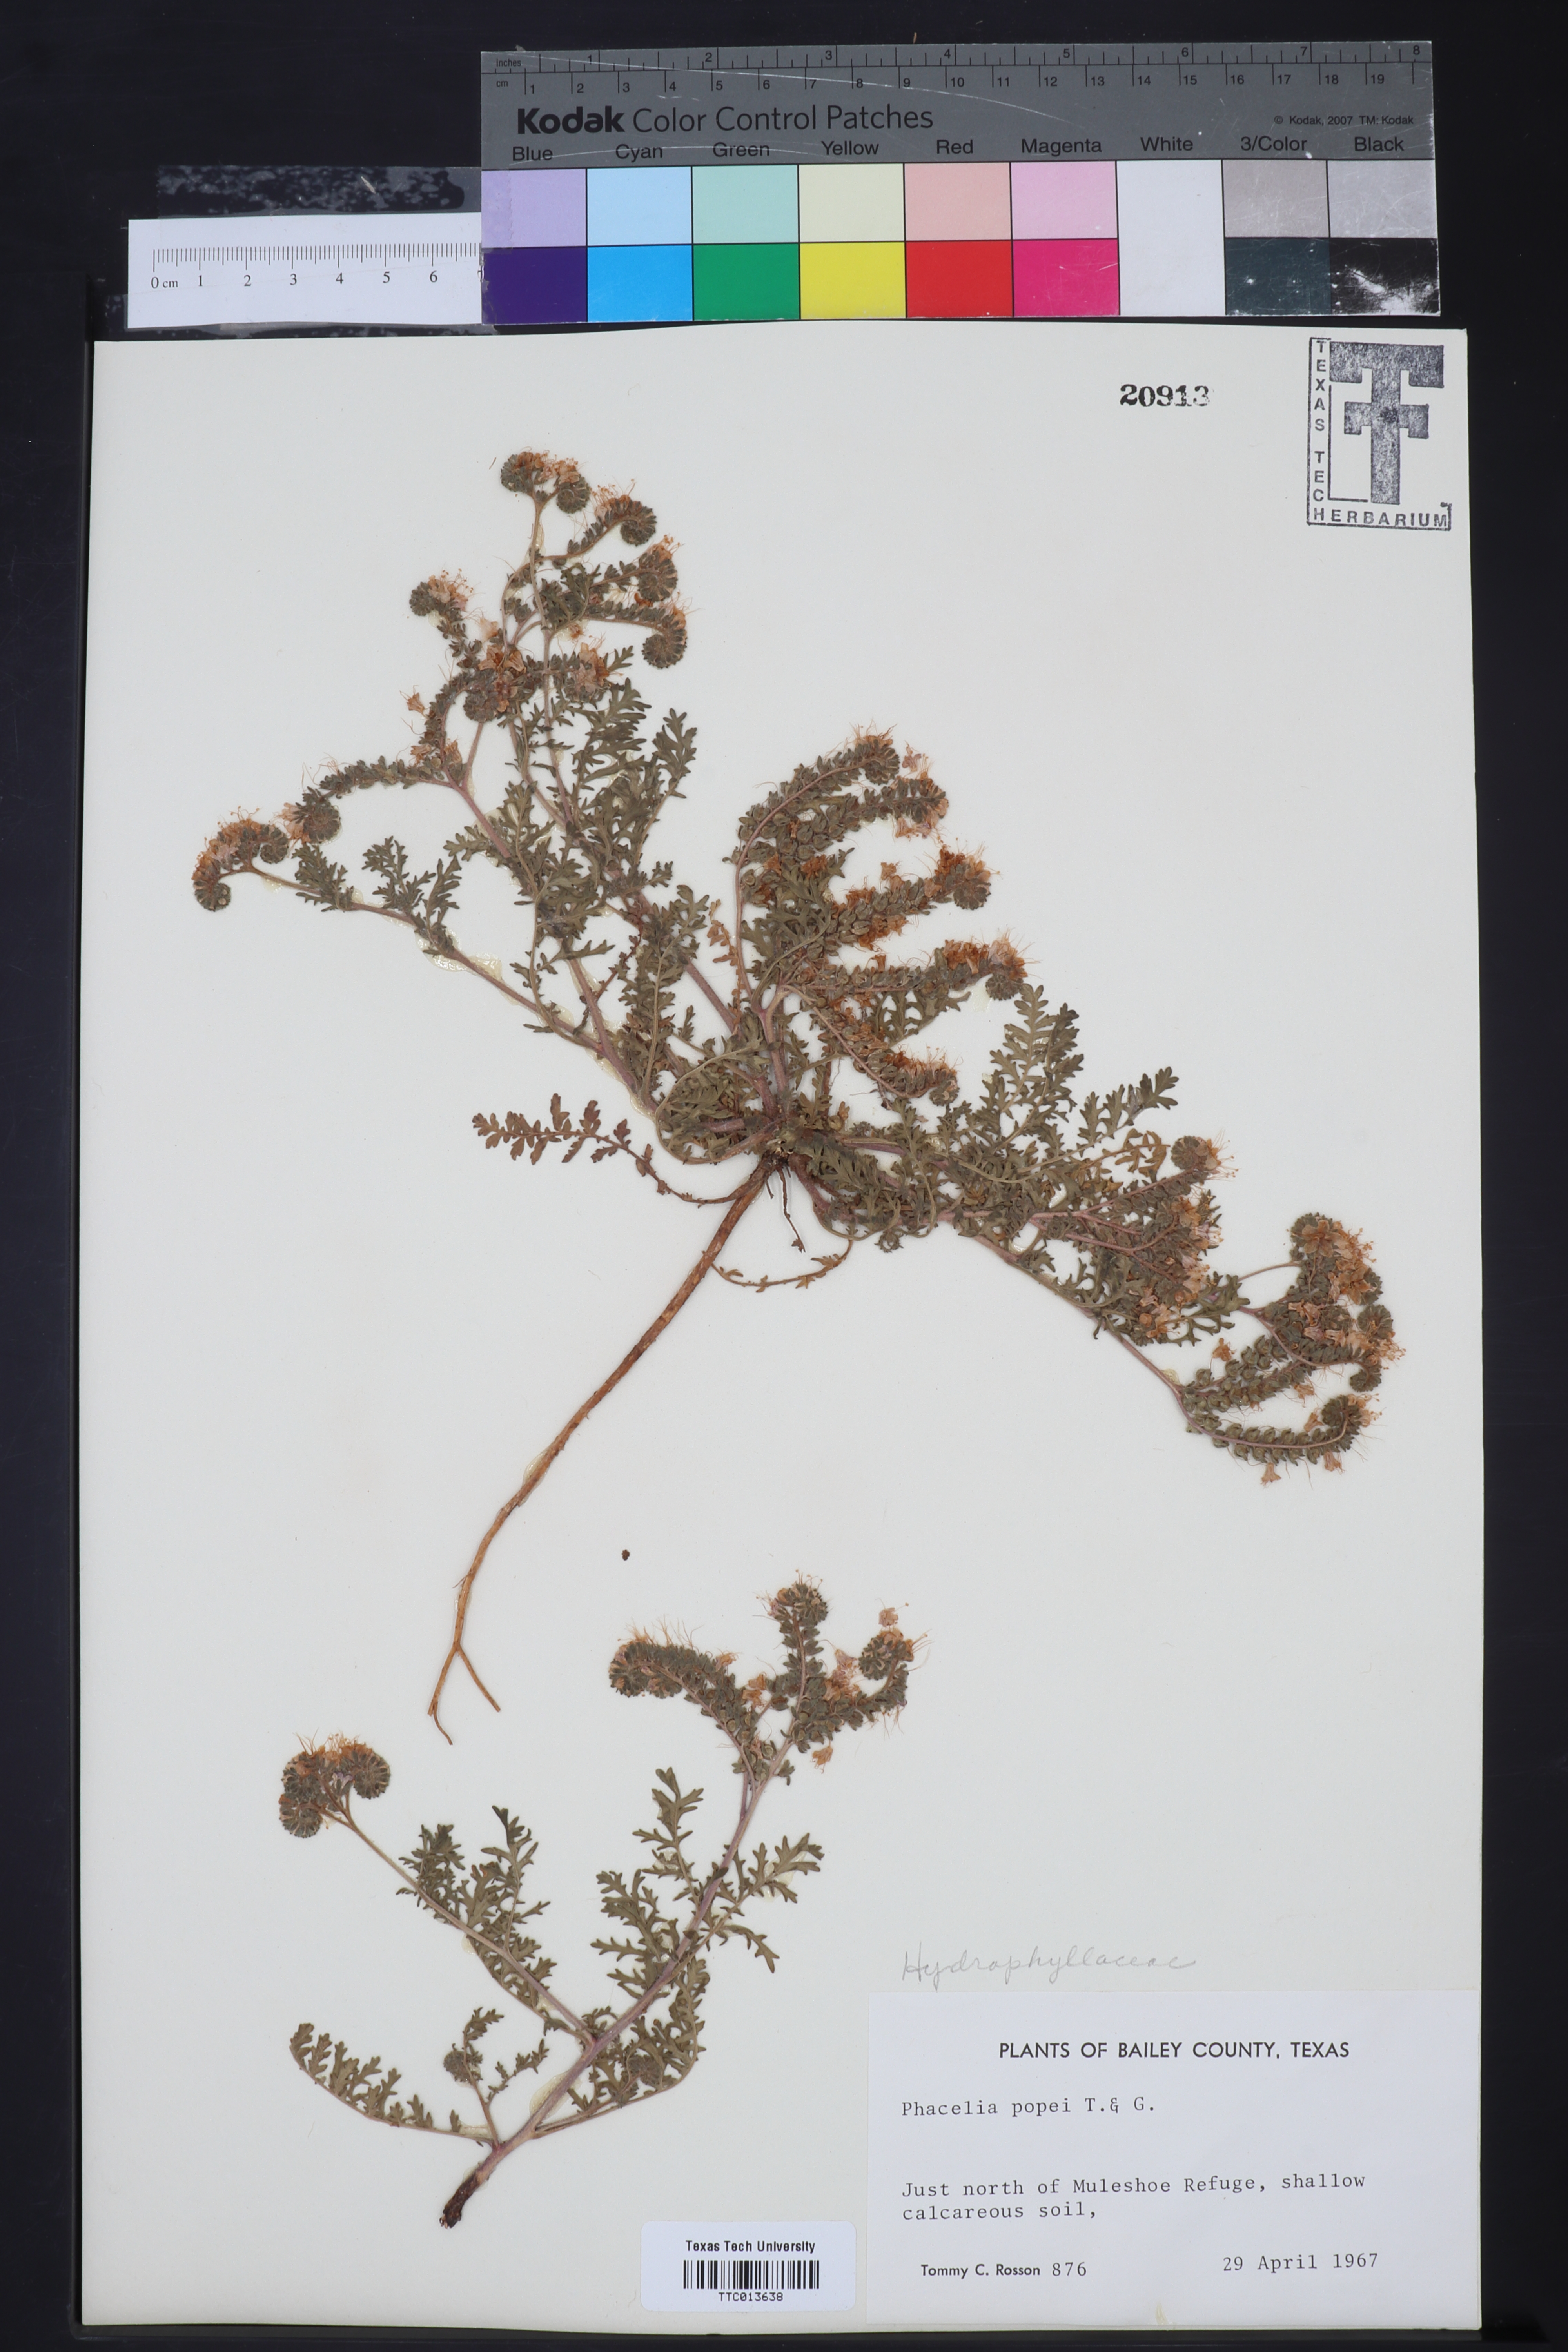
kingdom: Plantae
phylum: Tracheophyta
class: Magnoliopsida
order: Boraginales
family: Hydrophyllaceae
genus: Phacelia
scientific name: Phacelia popei
